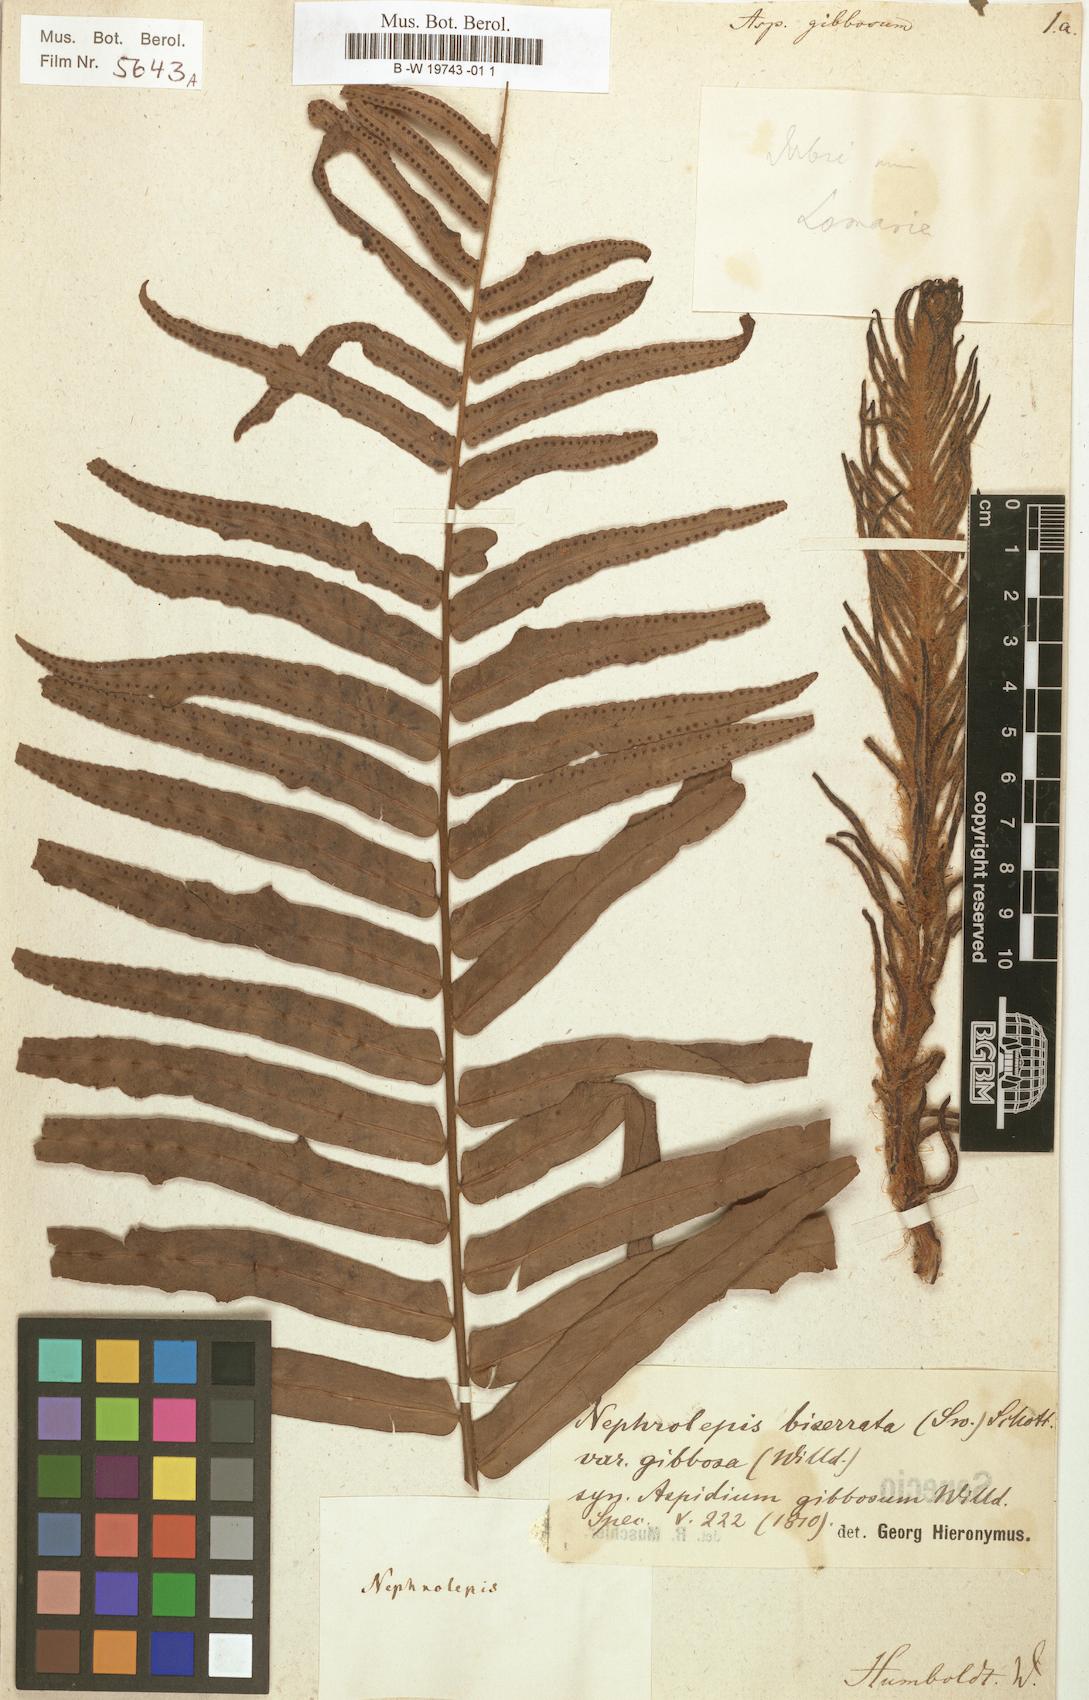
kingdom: Plantae
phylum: Tracheophyta
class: Polypodiopsida
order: Polypodiales
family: Nephrolepidaceae
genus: Nephrolepis
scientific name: Nephrolepis biserrata
